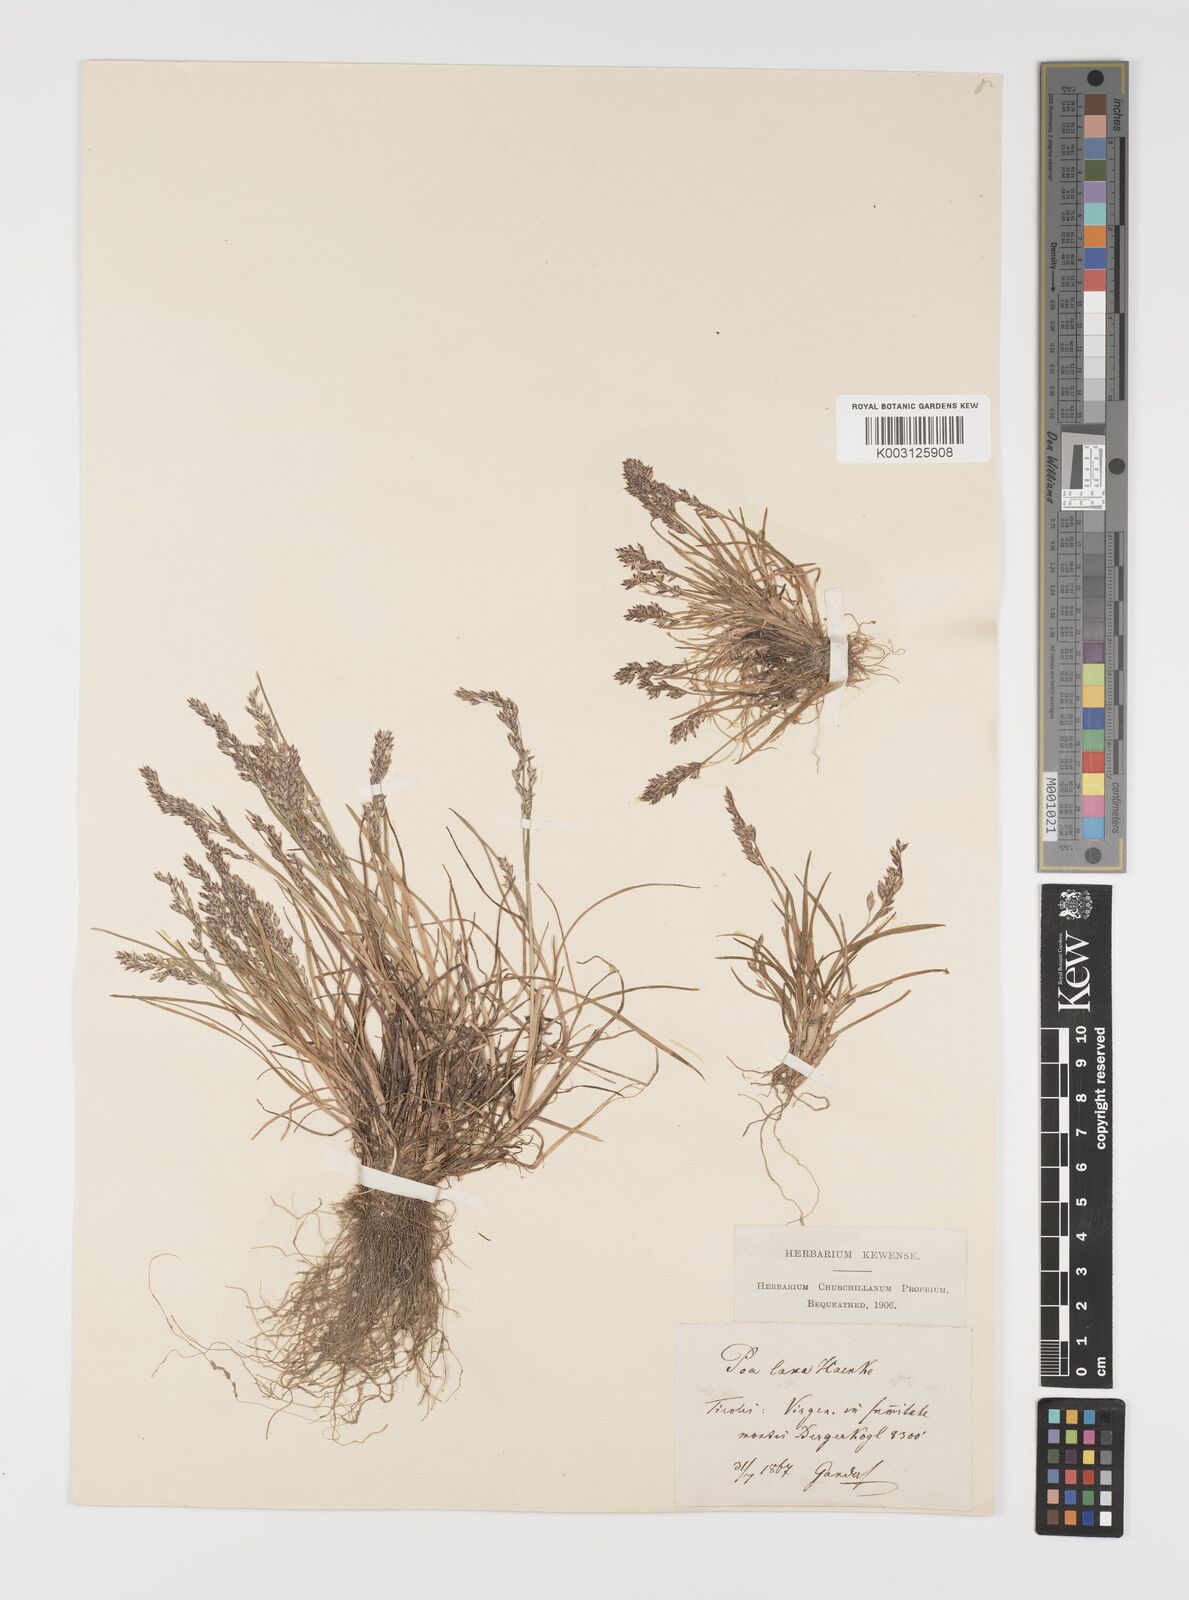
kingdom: Plantae
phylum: Tracheophyta
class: Liliopsida
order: Poales
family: Poaceae
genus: Poa
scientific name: Poa laxa
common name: Lax bluegrass
